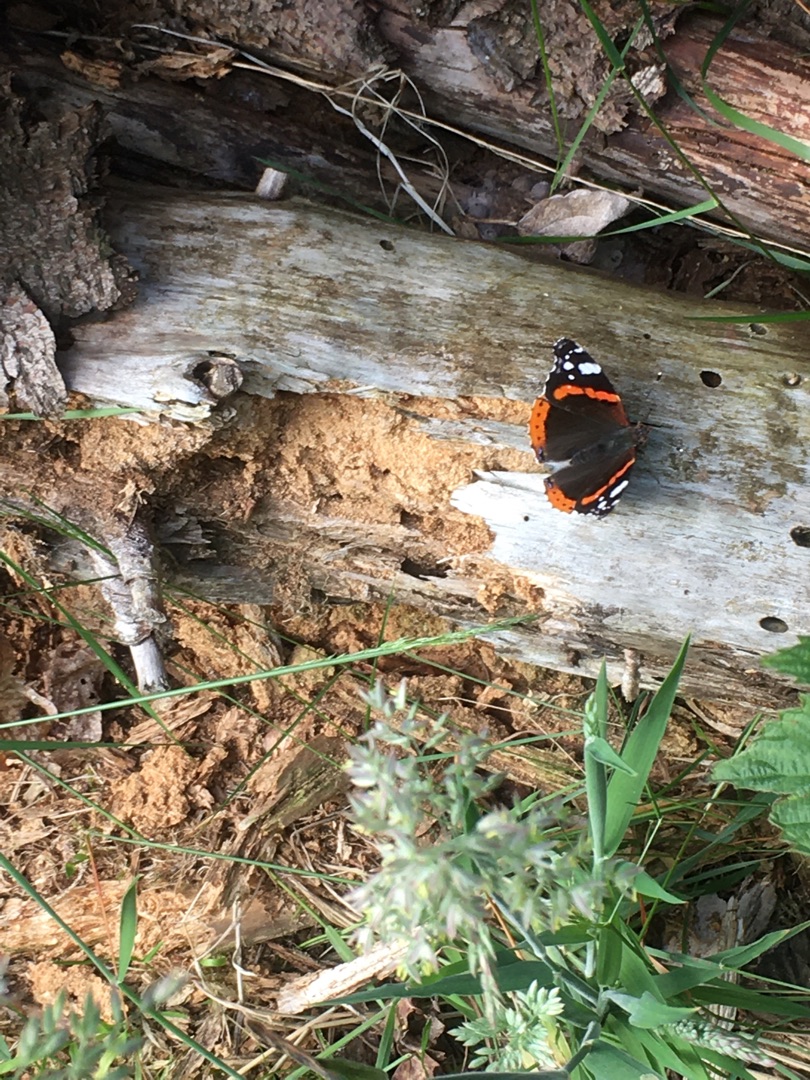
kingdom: Animalia
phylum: Arthropoda
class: Insecta
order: Lepidoptera
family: Nymphalidae
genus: Vanessa
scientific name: Vanessa atalanta
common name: Admiral
